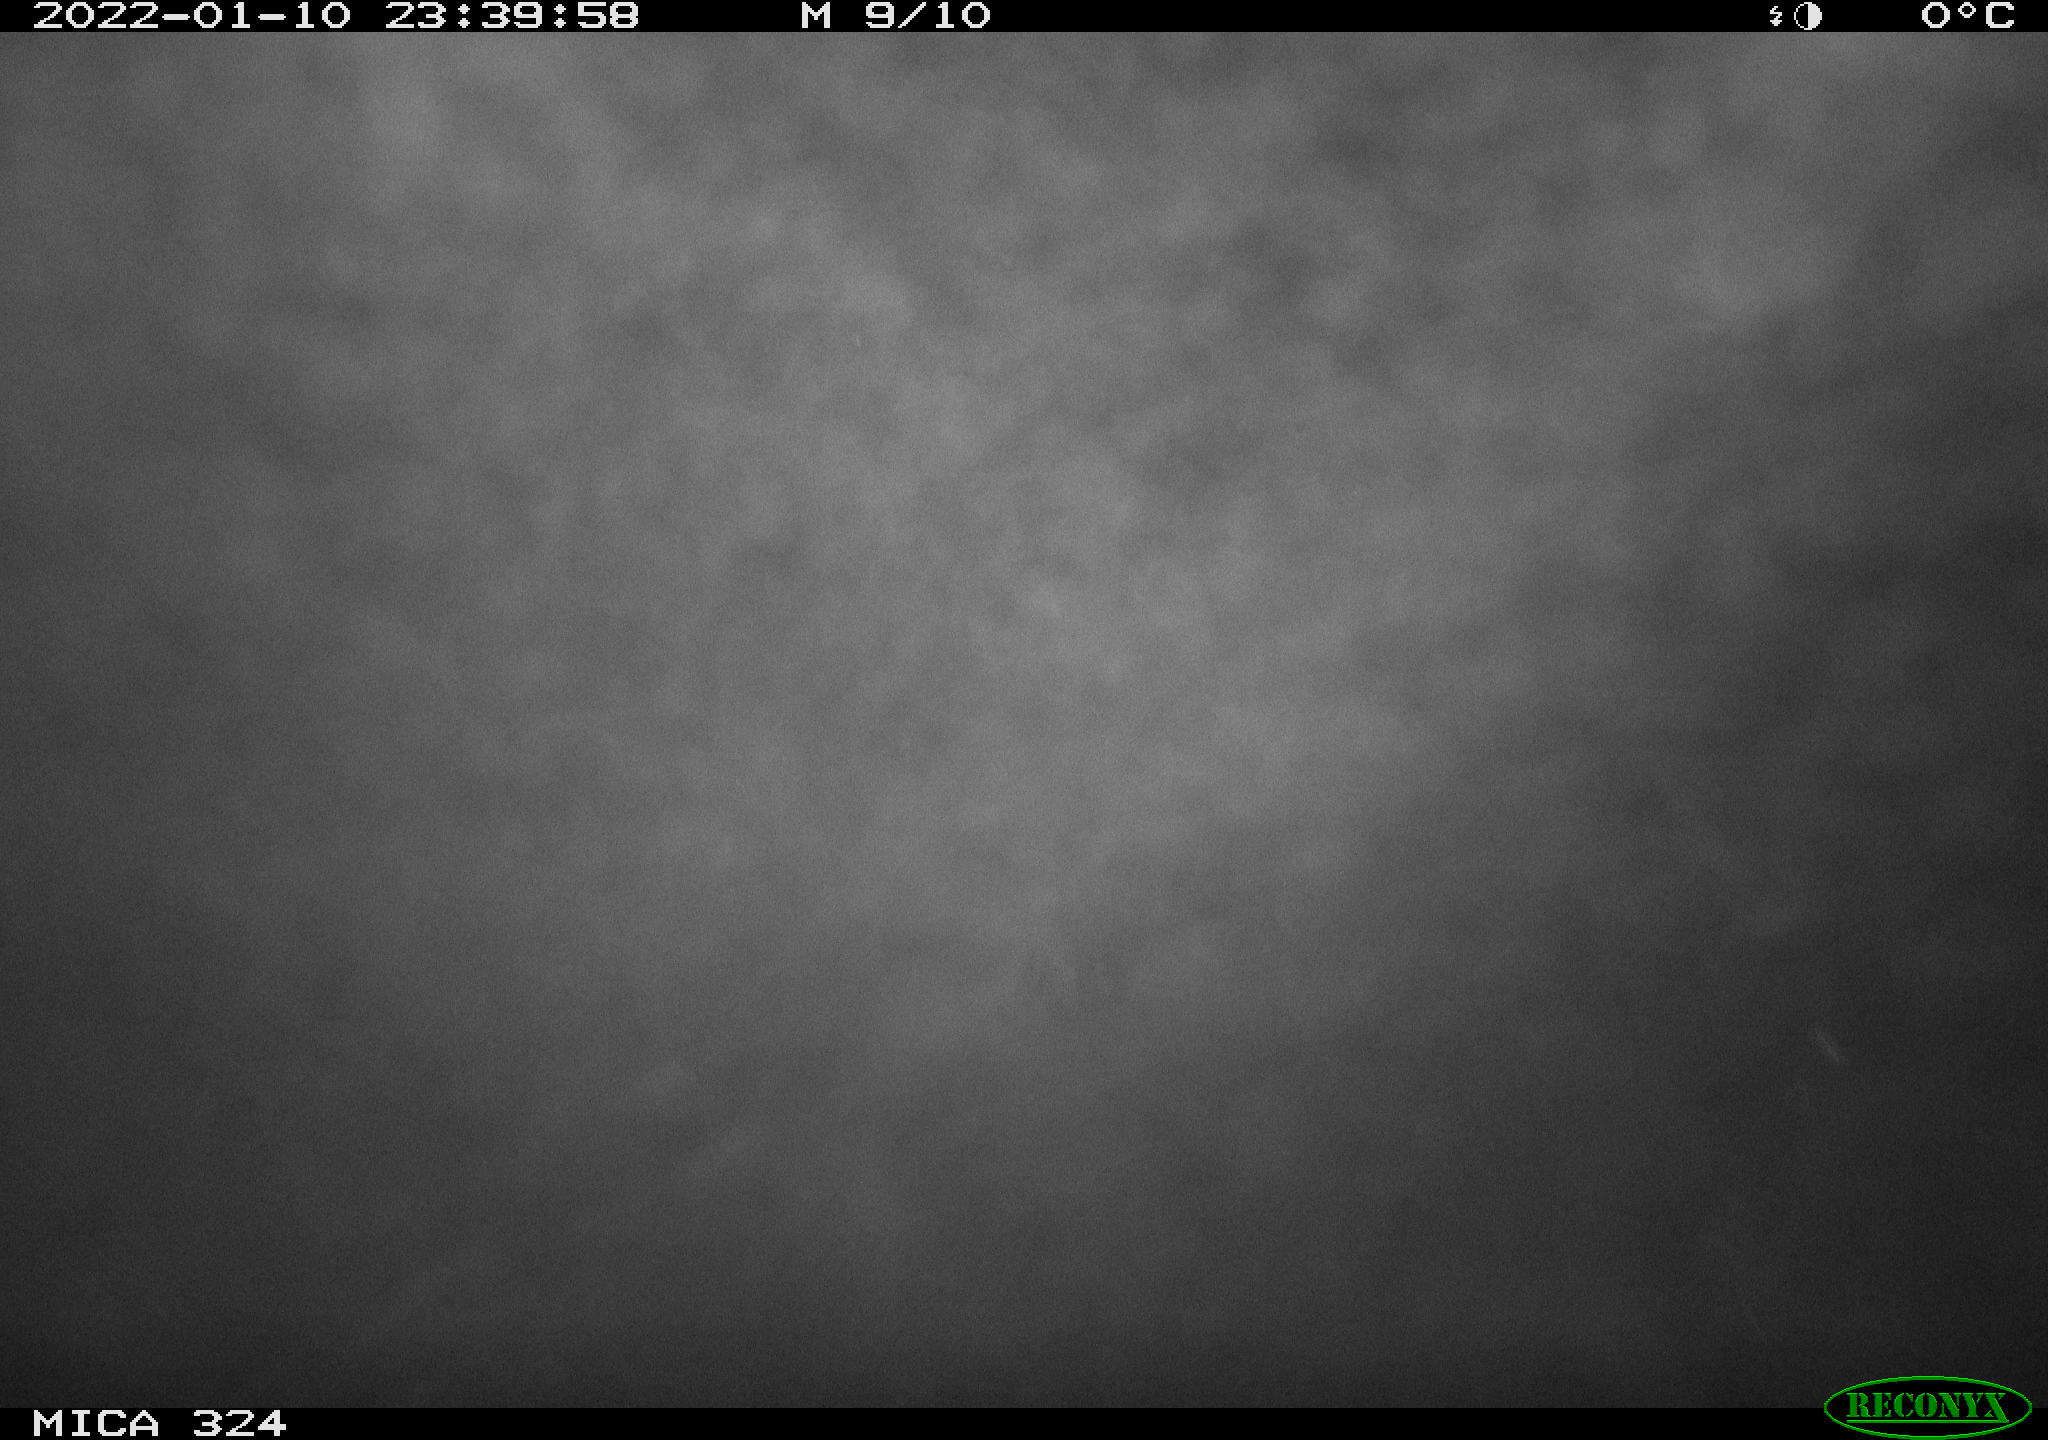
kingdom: Animalia
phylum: Chordata
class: Mammalia
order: Rodentia
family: Cricetidae
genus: Ondatra
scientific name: Ondatra zibethicus
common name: Muskrat
